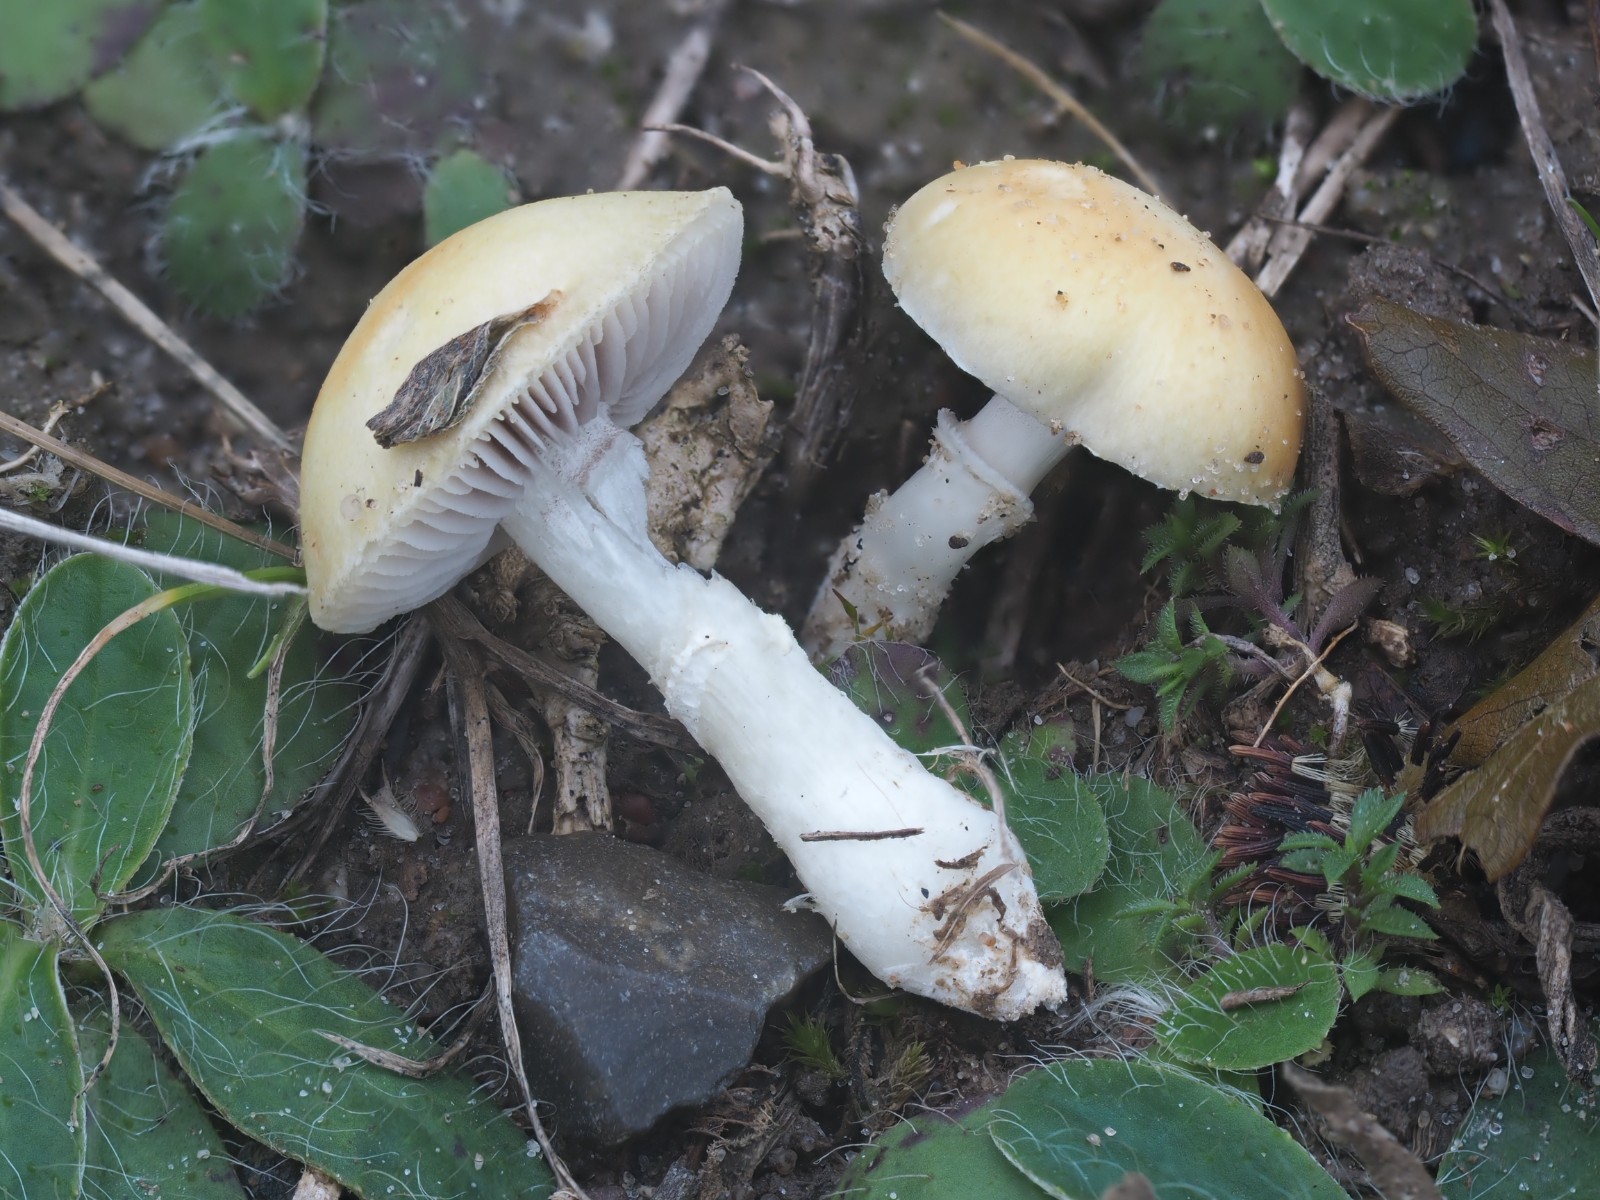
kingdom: Fungi
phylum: Basidiomycota
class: Agaricomycetes
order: Agaricales
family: Hymenogastraceae
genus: Psilocybe
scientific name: Psilocybe coronilla
